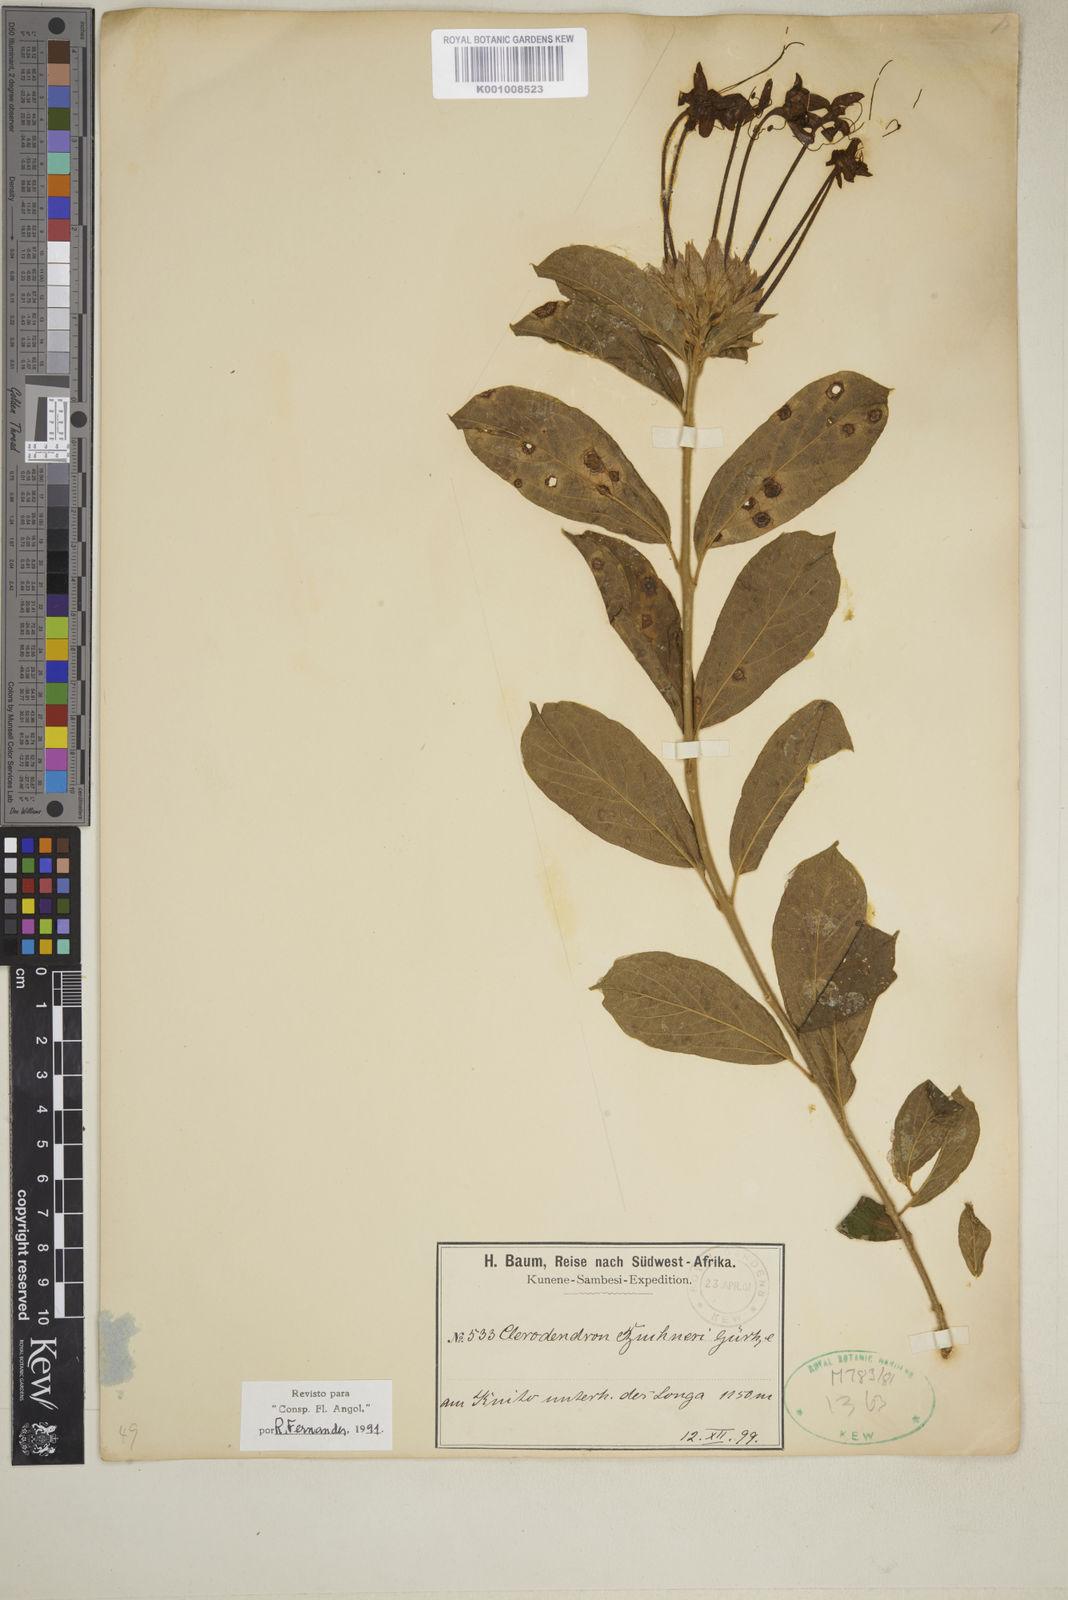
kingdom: Plantae
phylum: Tracheophyta
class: Magnoliopsida
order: Lamiales
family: Lamiaceae
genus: Clerodendrum
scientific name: Clerodendrum
